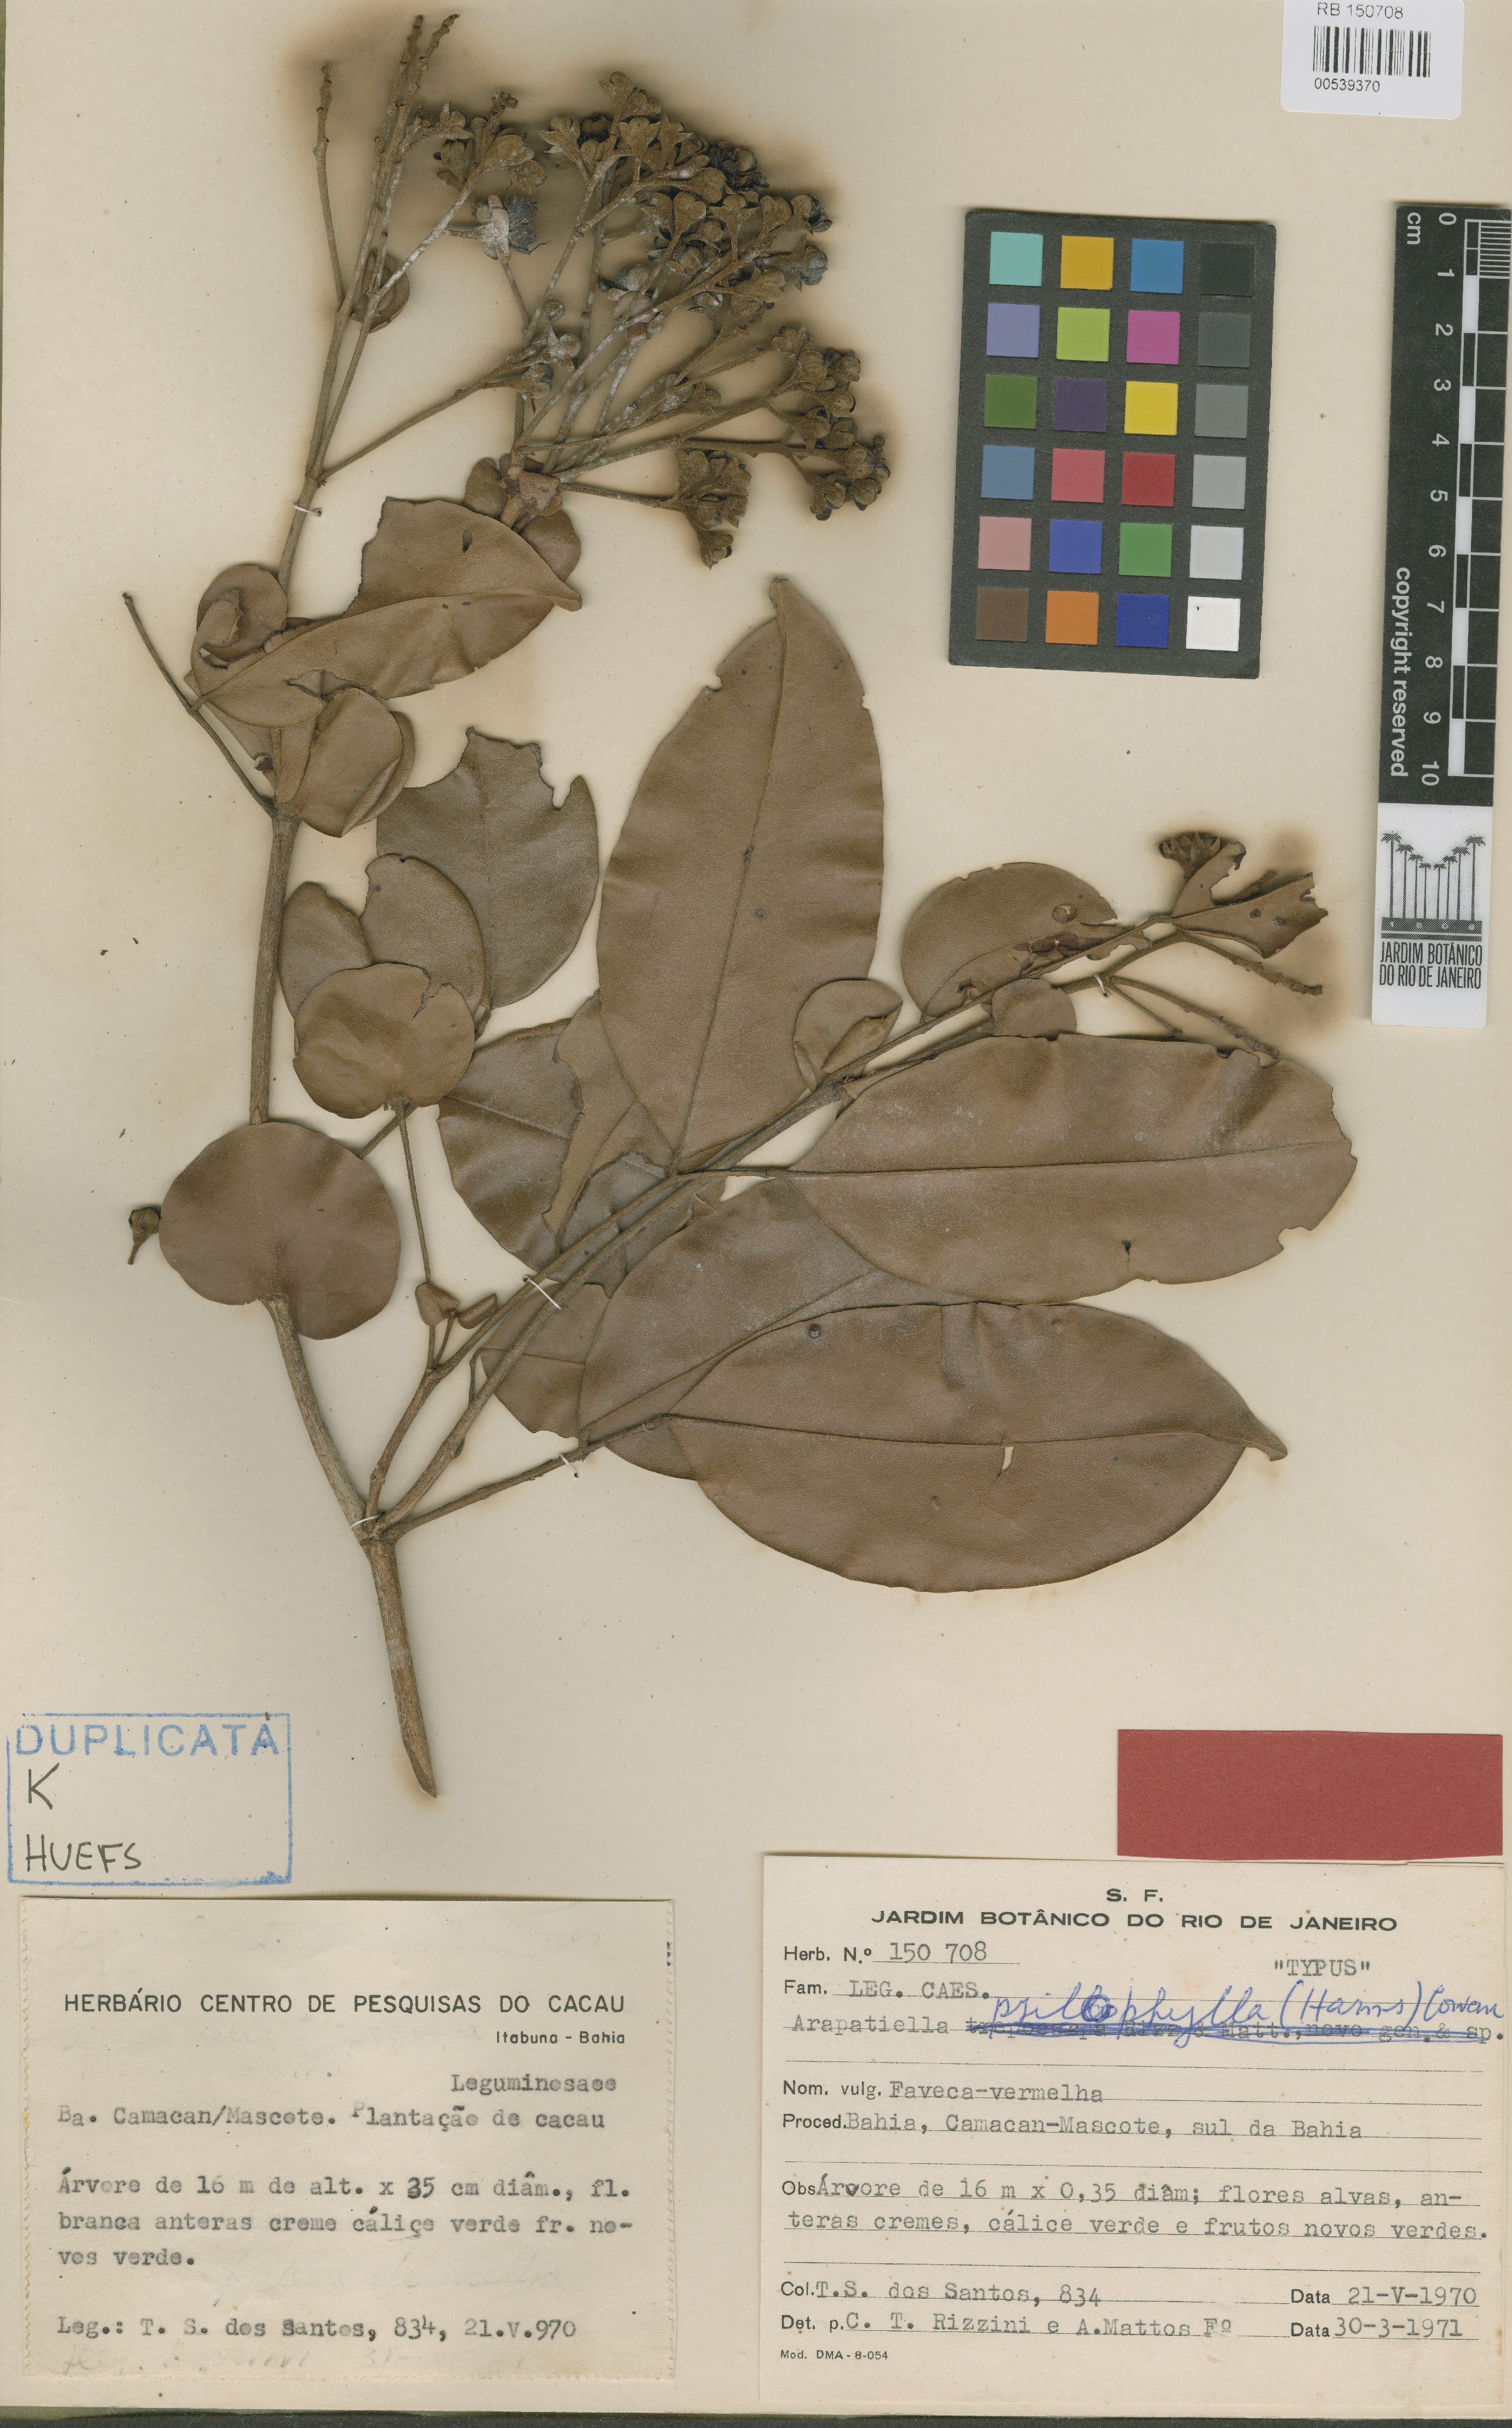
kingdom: Plantae
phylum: Tracheophyta
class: Magnoliopsida
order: Fabales
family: Fabaceae
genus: Arapatiella
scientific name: Arapatiella psilophylla
